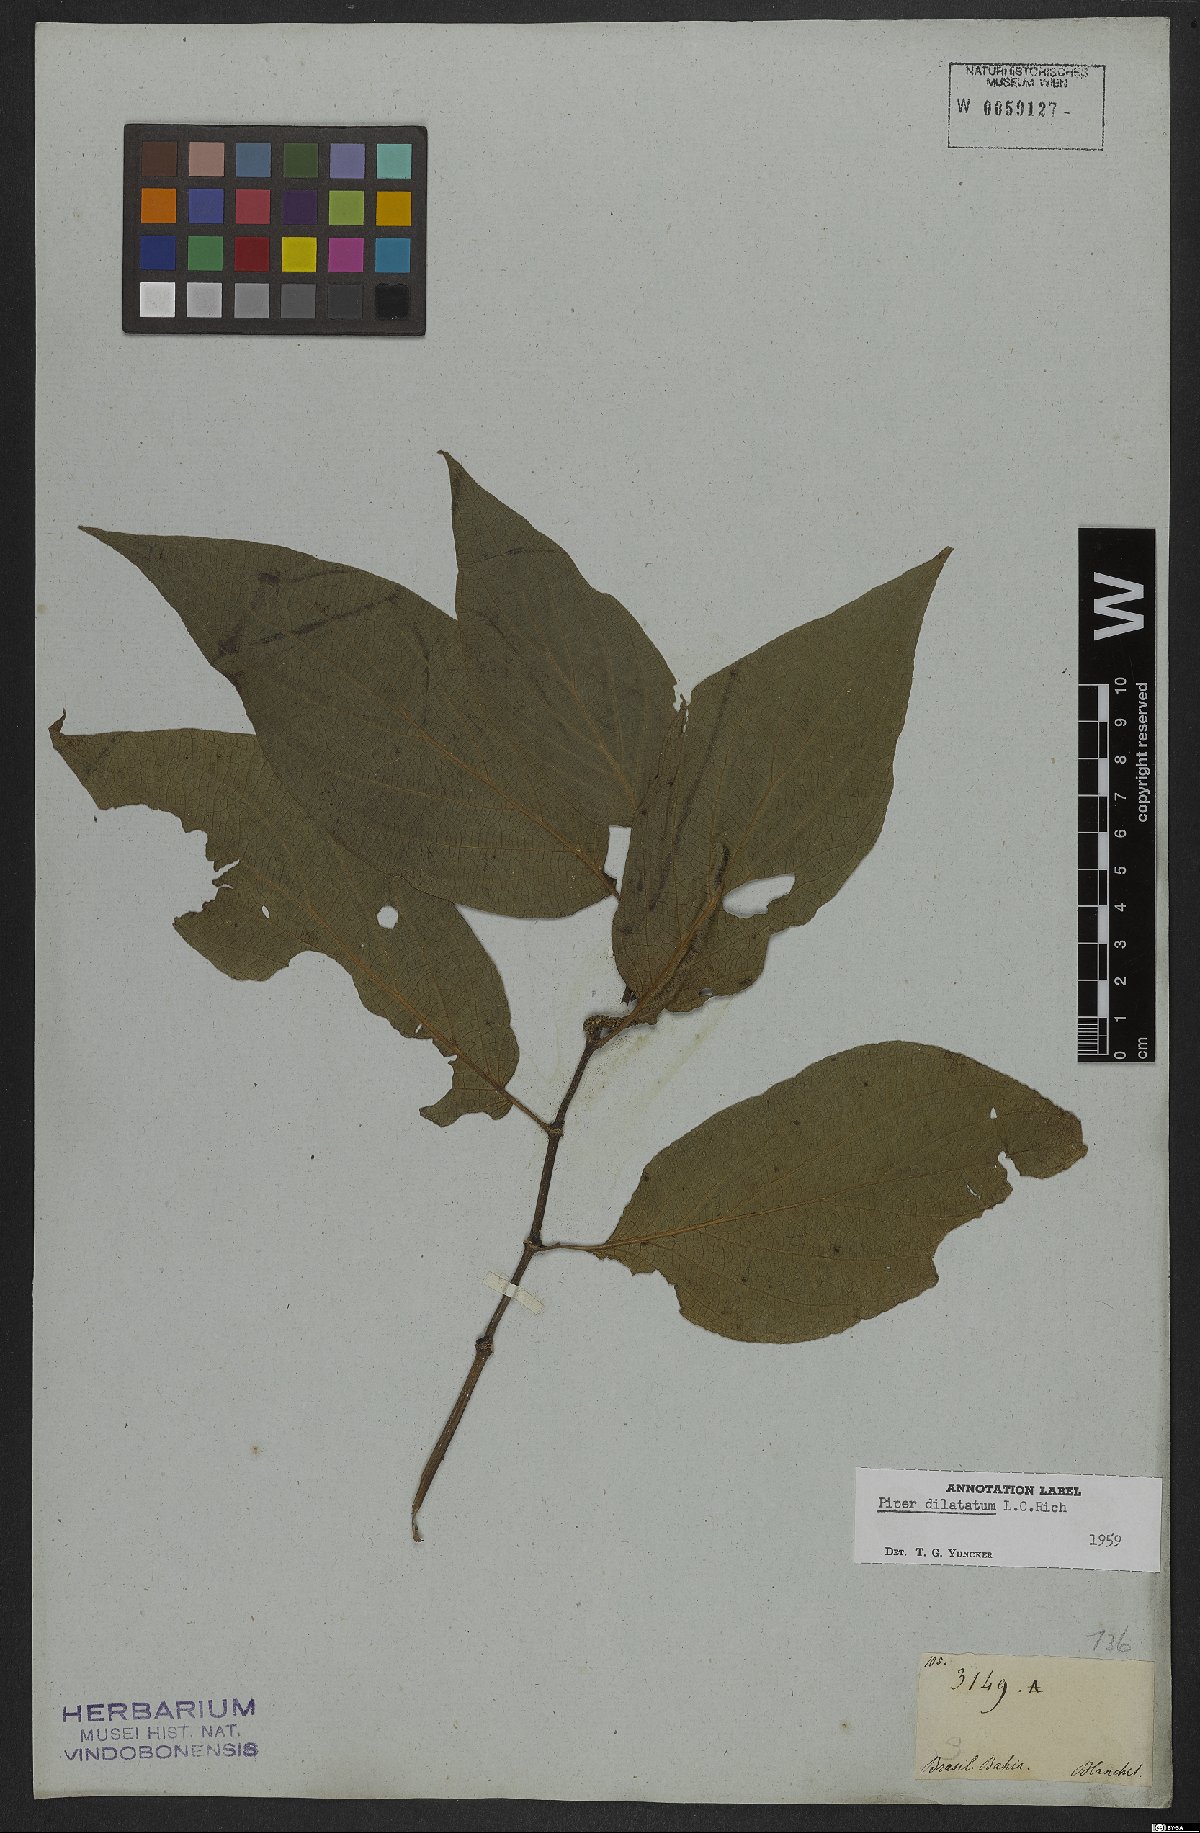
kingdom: Plantae
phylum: Tracheophyta
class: Magnoliopsida
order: Piperales
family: Piperaceae
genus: Piper
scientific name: Piper dilatatum
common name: Higuillo
